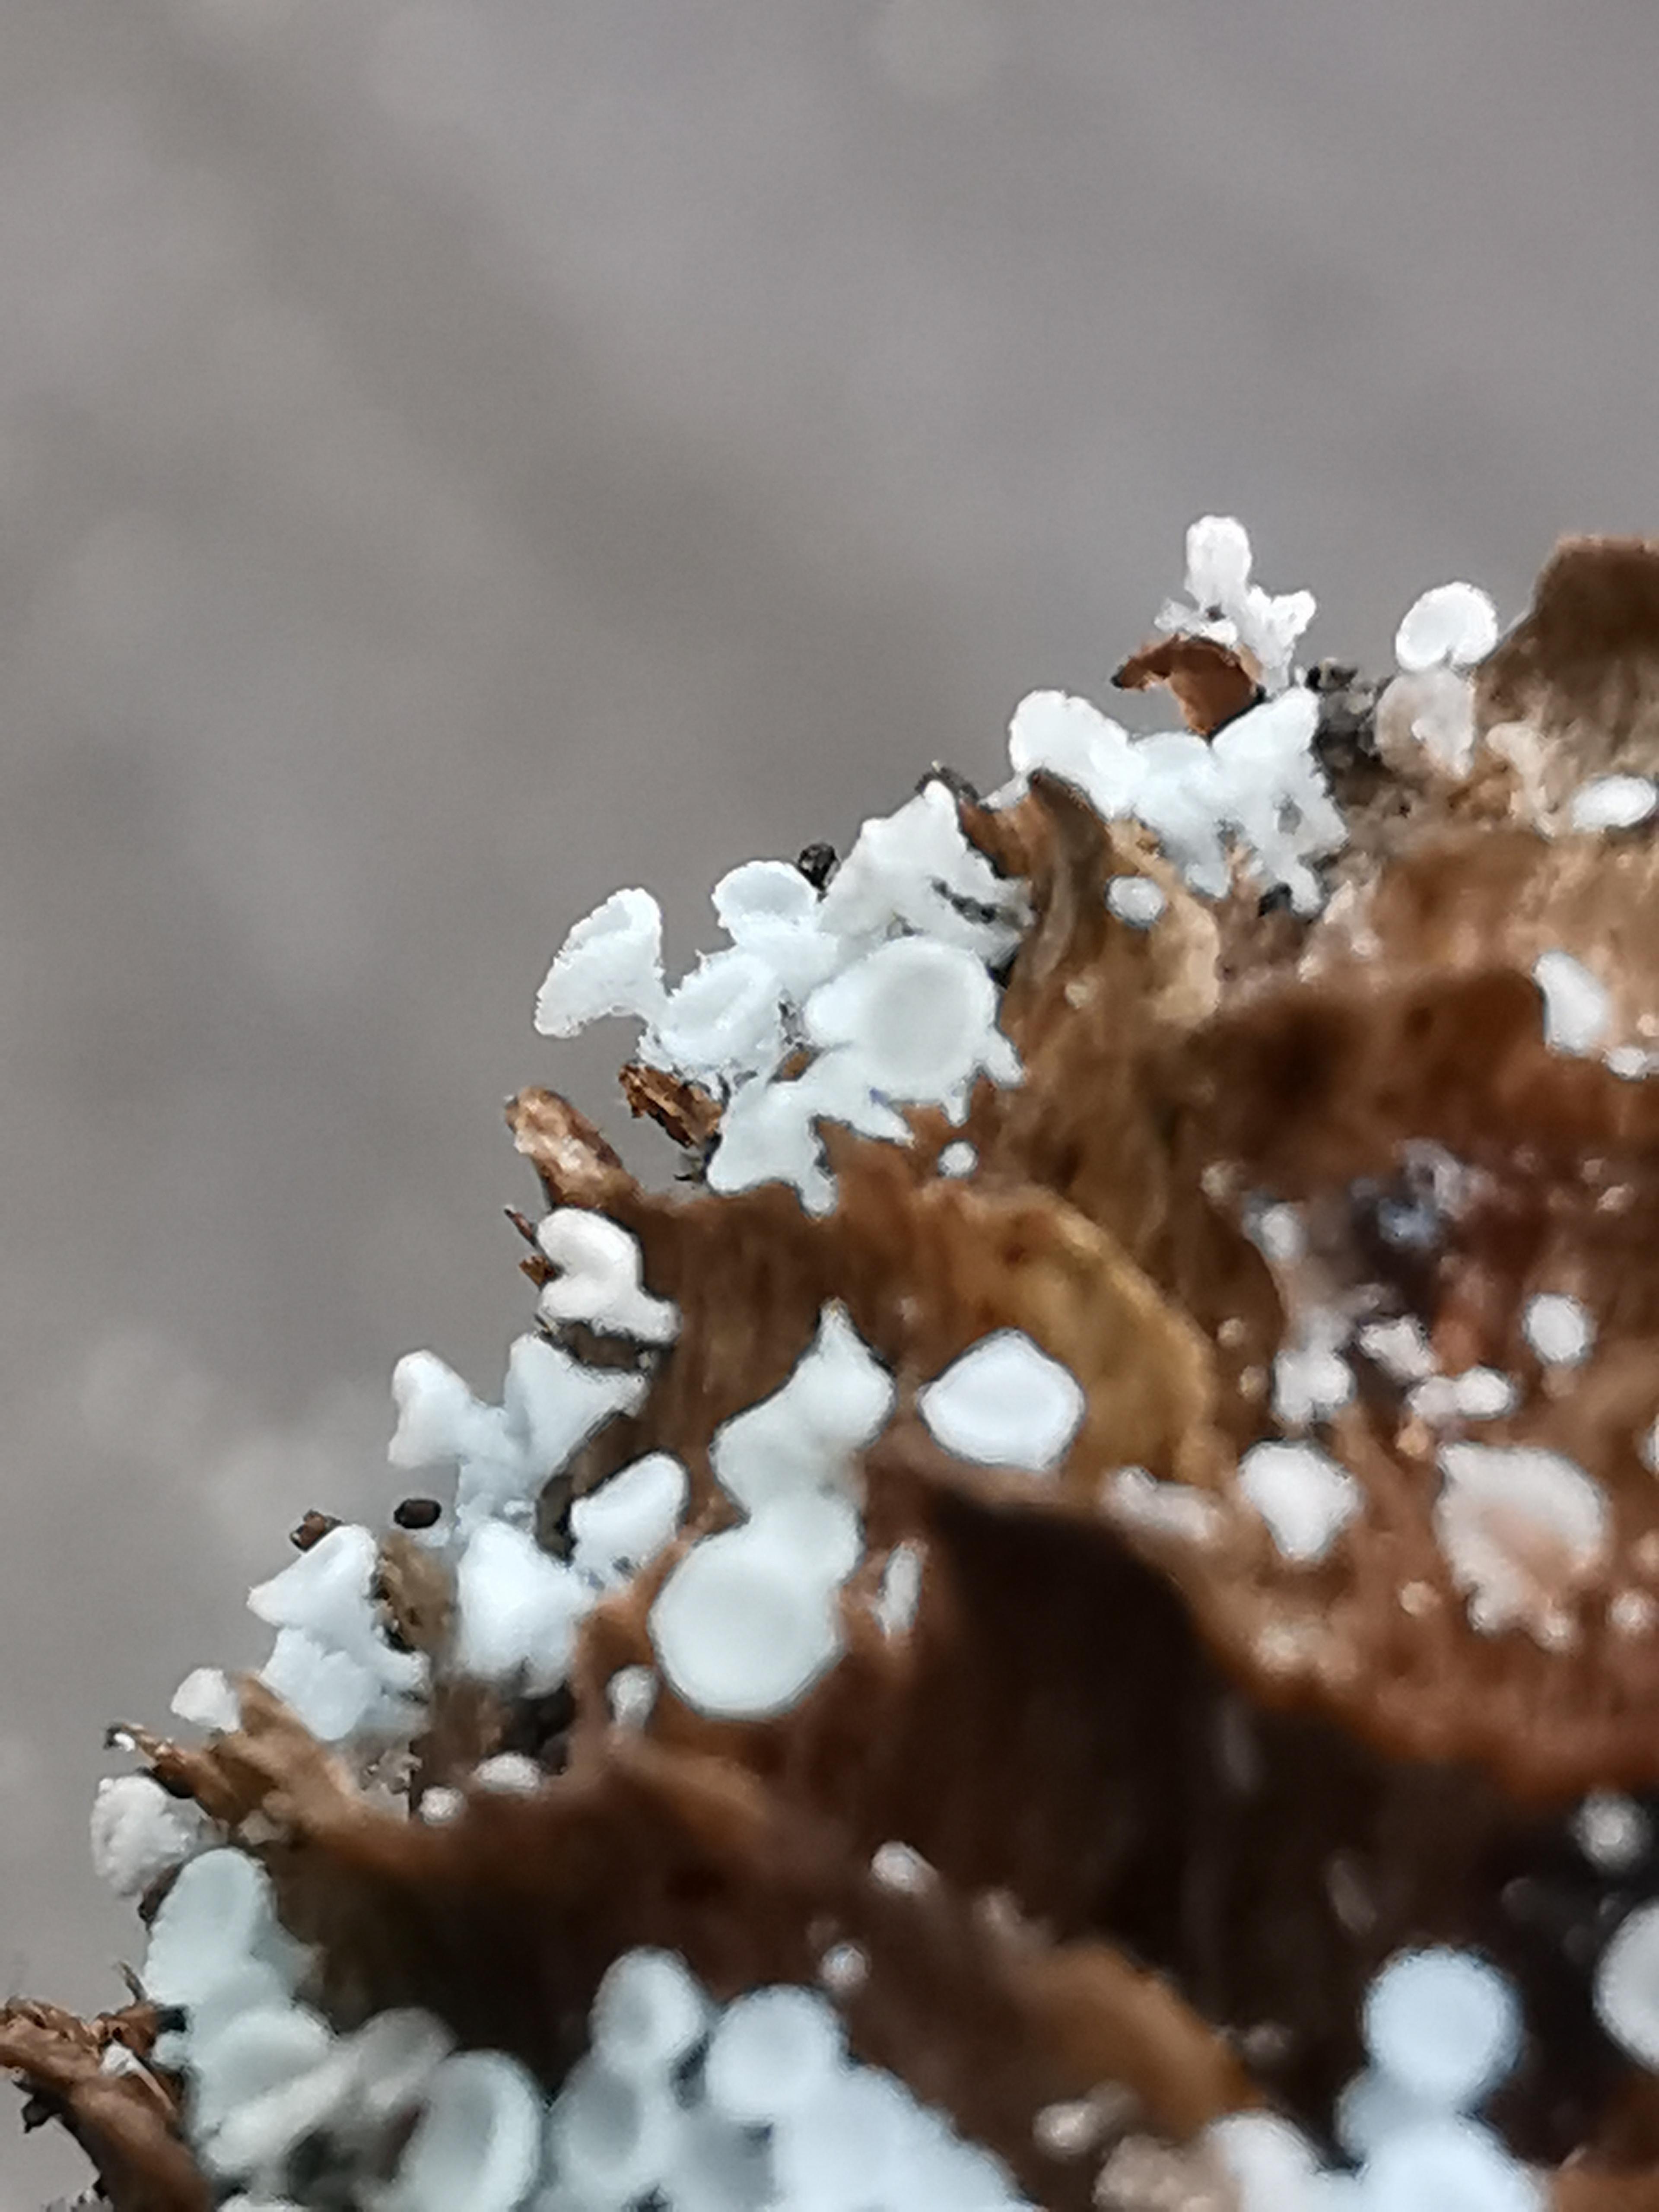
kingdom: Fungi
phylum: Ascomycota
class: Leotiomycetes
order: Helotiales
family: Lachnaceae
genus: Lachnum
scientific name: Lachnum virgineum
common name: jomfru-frynseskive
